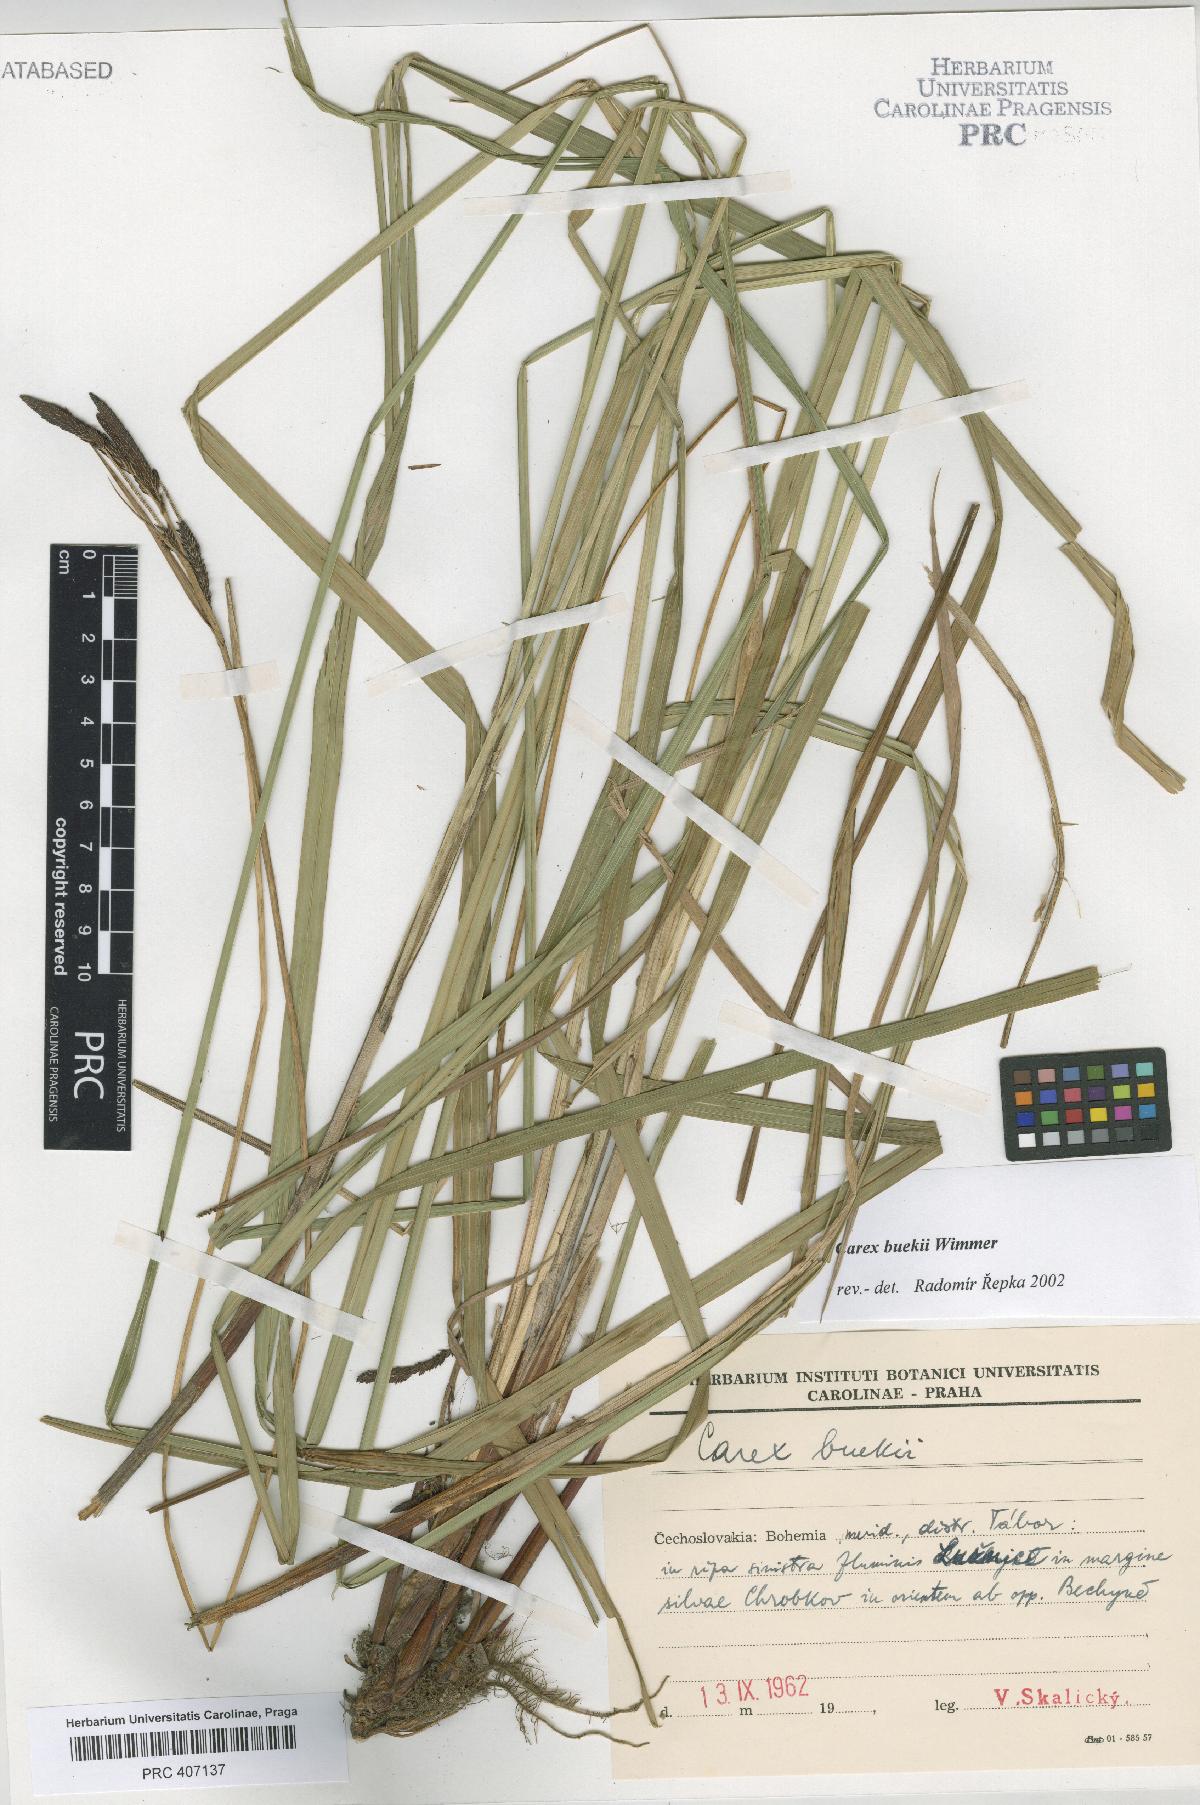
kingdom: Plantae
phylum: Tracheophyta
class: Liliopsida
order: Poales
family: Cyperaceae
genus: Carex
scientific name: Carex buekii
